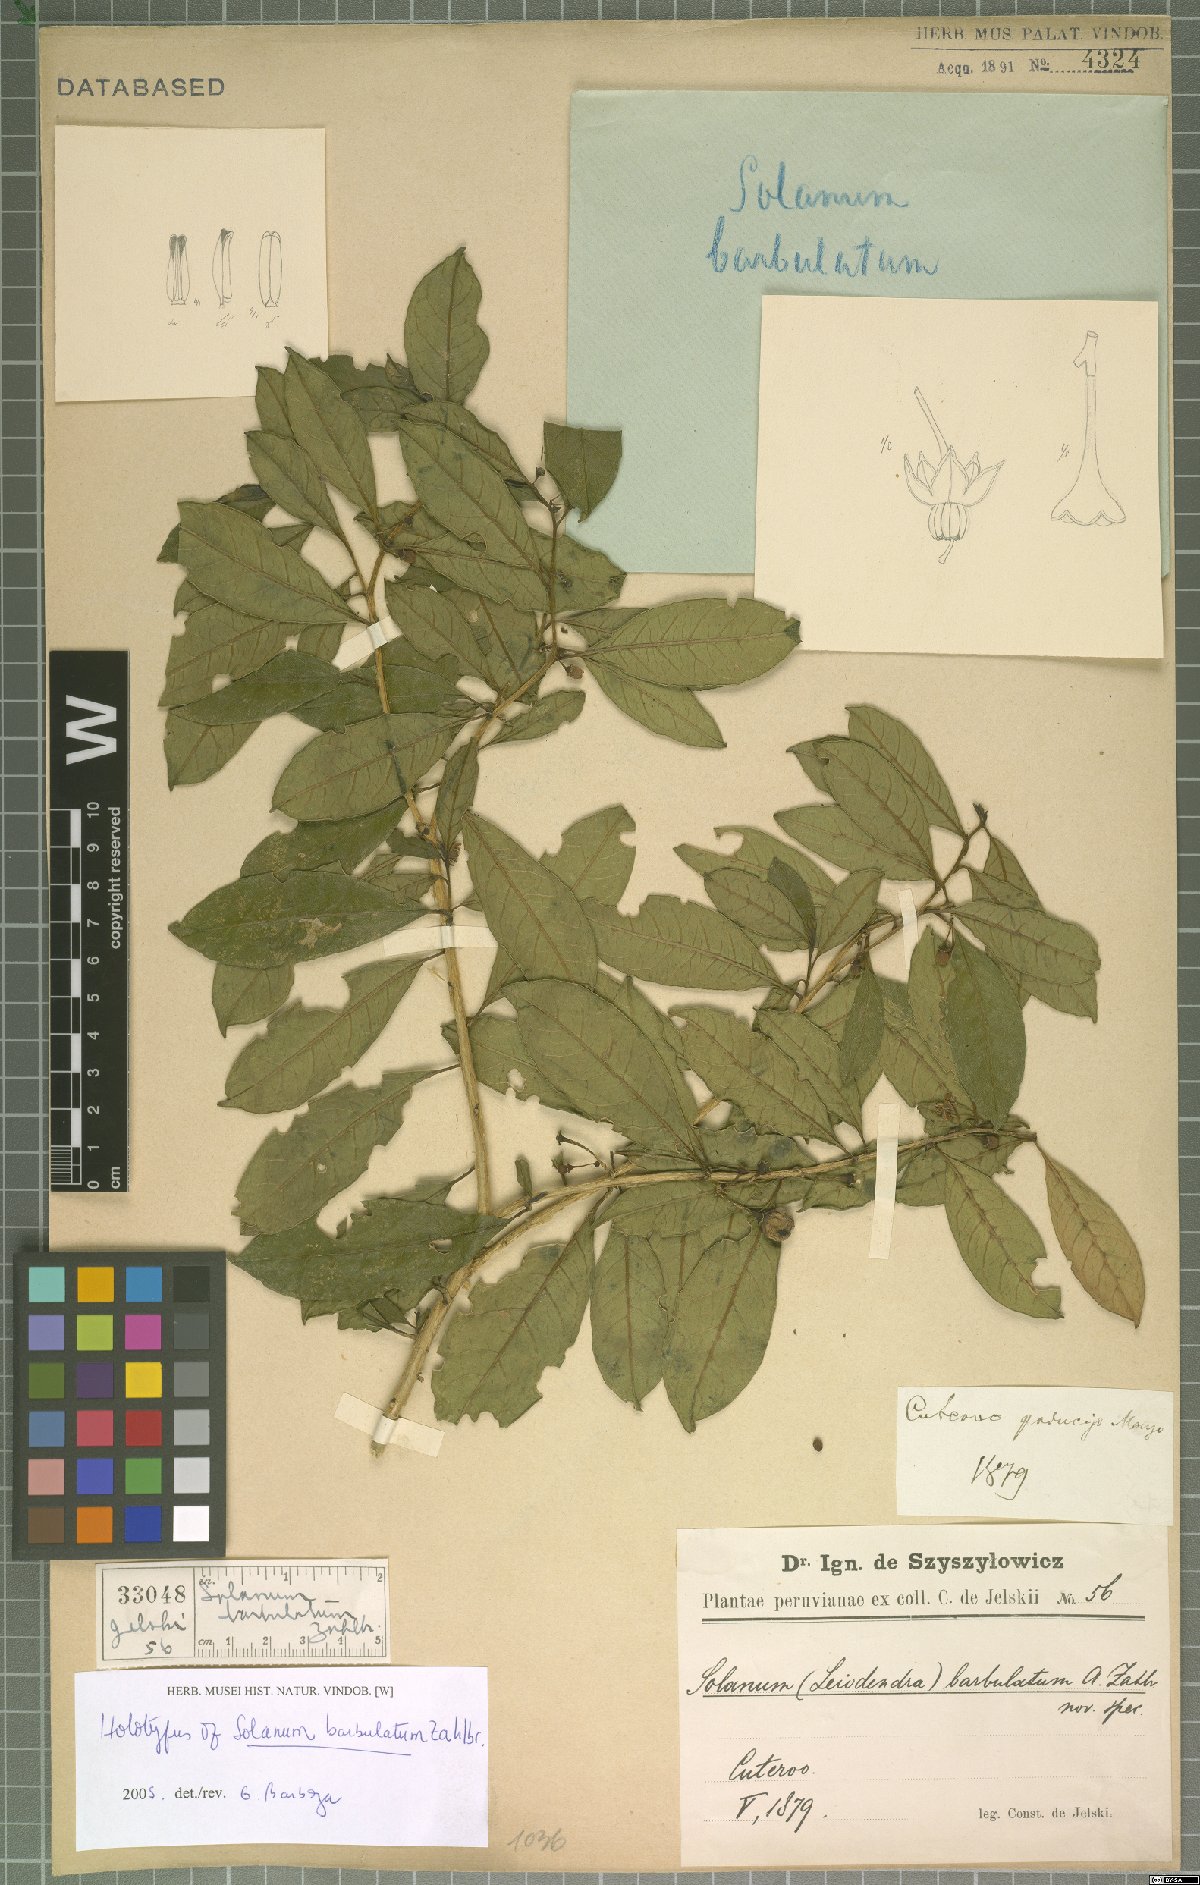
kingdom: Plantae
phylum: Tracheophyta
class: Magnoliopsida
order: Solanales
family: Solanaceae
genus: Solanum
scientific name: Solanum barbulatum
